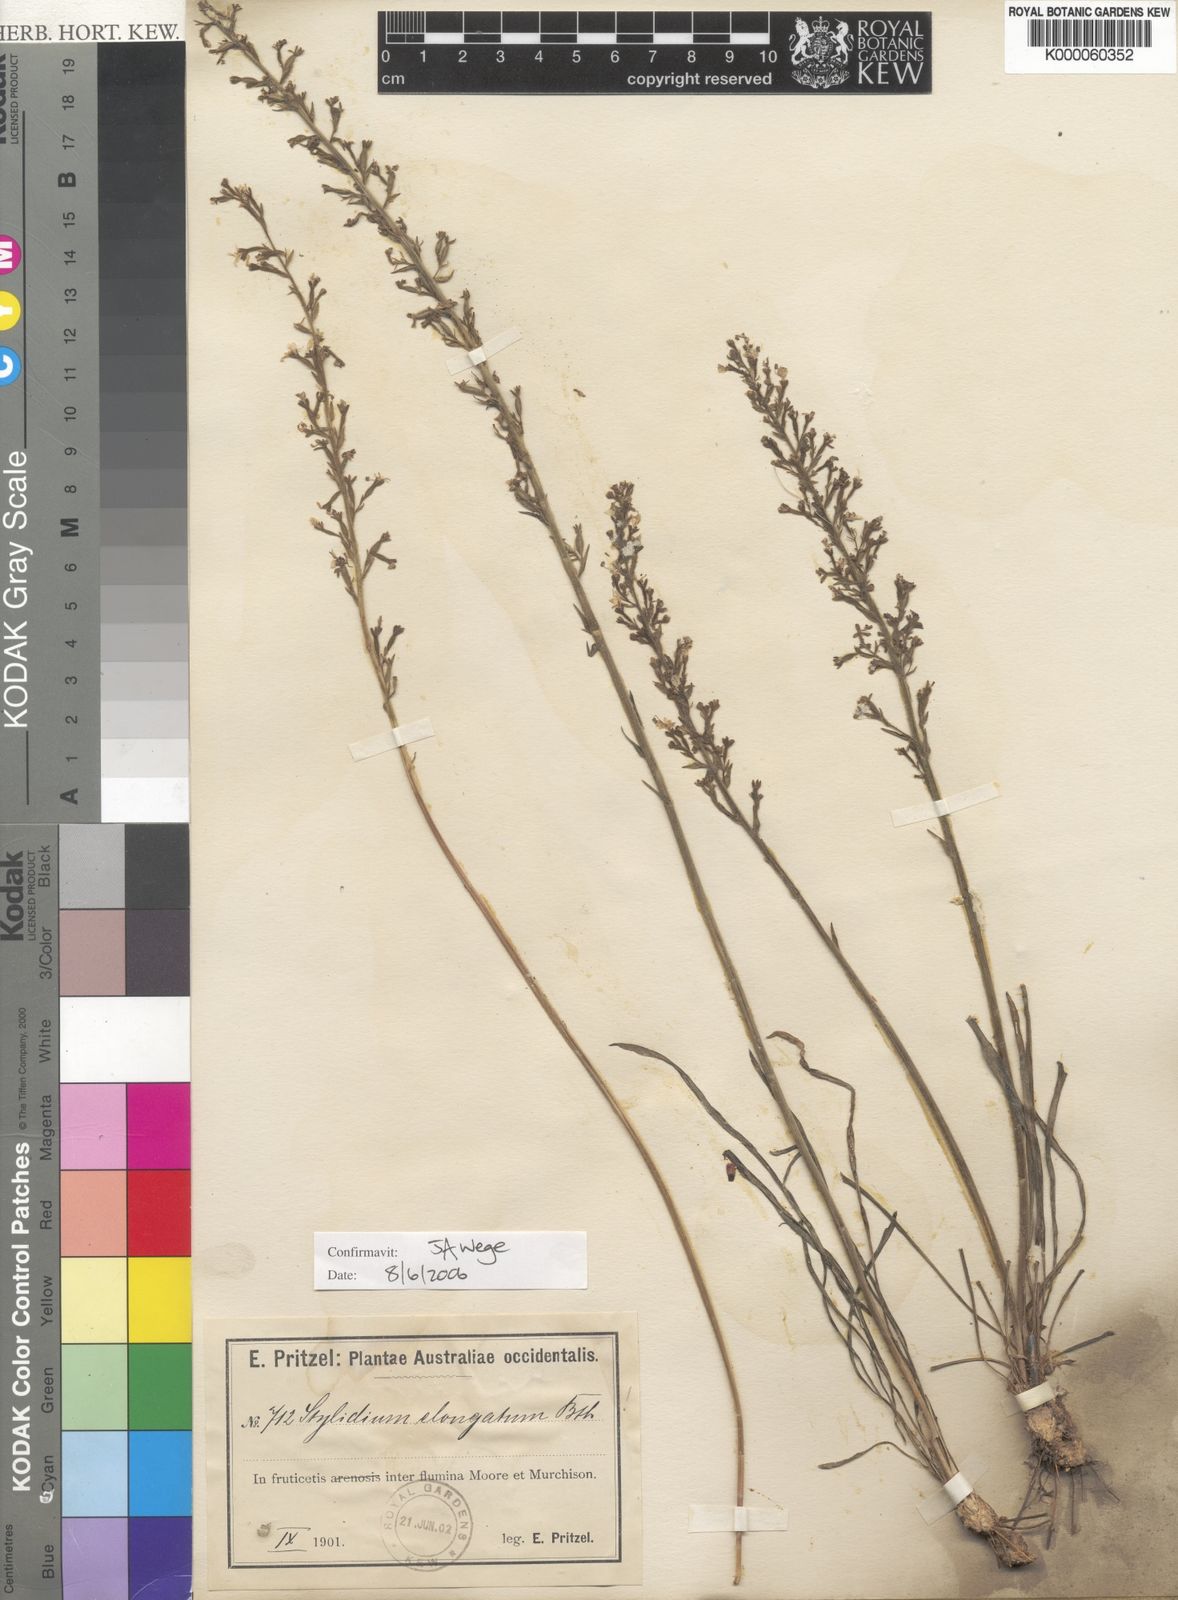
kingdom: Plantae
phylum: Tracheophyta
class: Magnoliopsida
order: Asterales
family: Stylidiaceae
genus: Stylidium
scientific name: Stylidium elongatum
